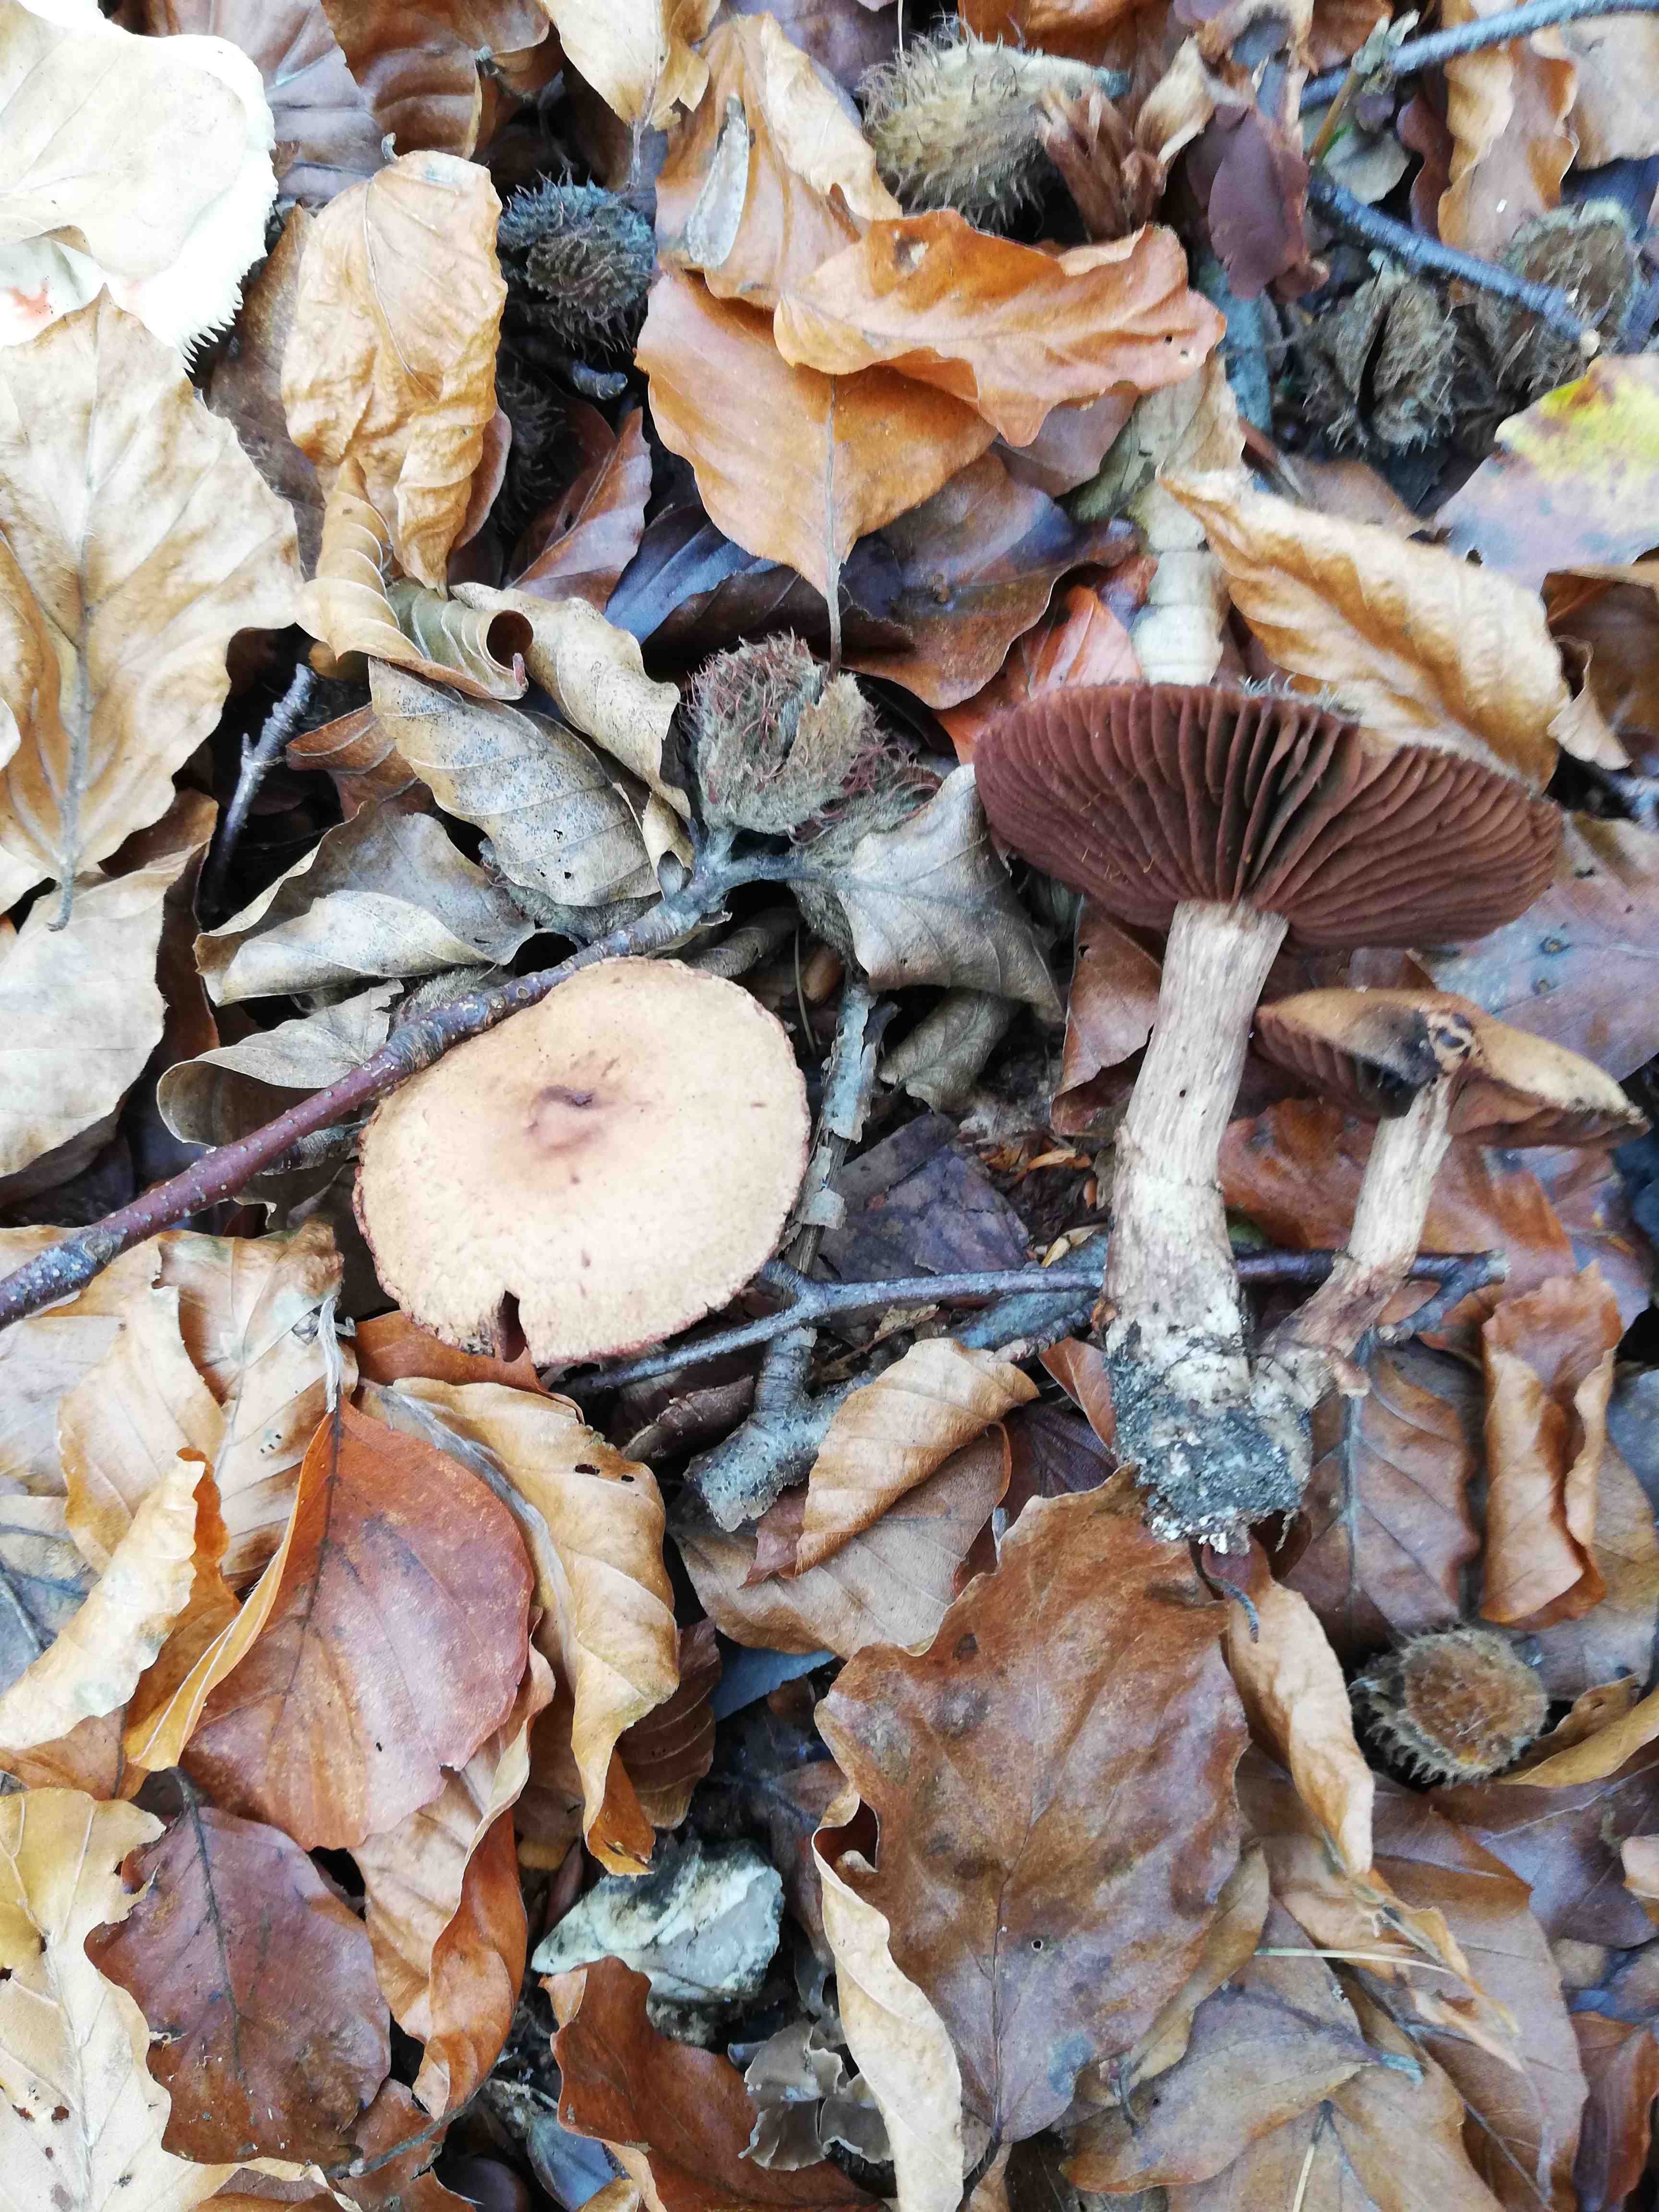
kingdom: Fungi
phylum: Basidiomycota
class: Agaricomycetes
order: Agaricales
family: Cortinariaceae
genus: Cortinarius
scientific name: Cortinarius
